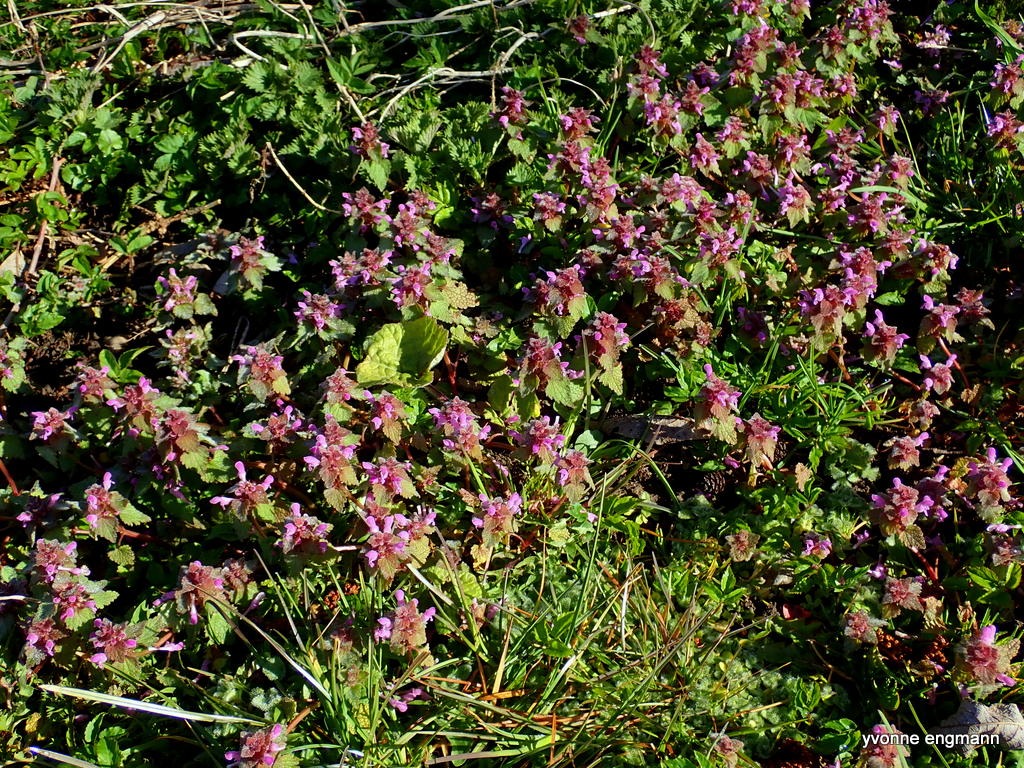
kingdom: Plantae
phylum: Tracheophyta
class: Magnoliopsida
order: Lamiales
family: Lamiaceae
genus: Lamium
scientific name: Lamium purpureum
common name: Rød tvetand
